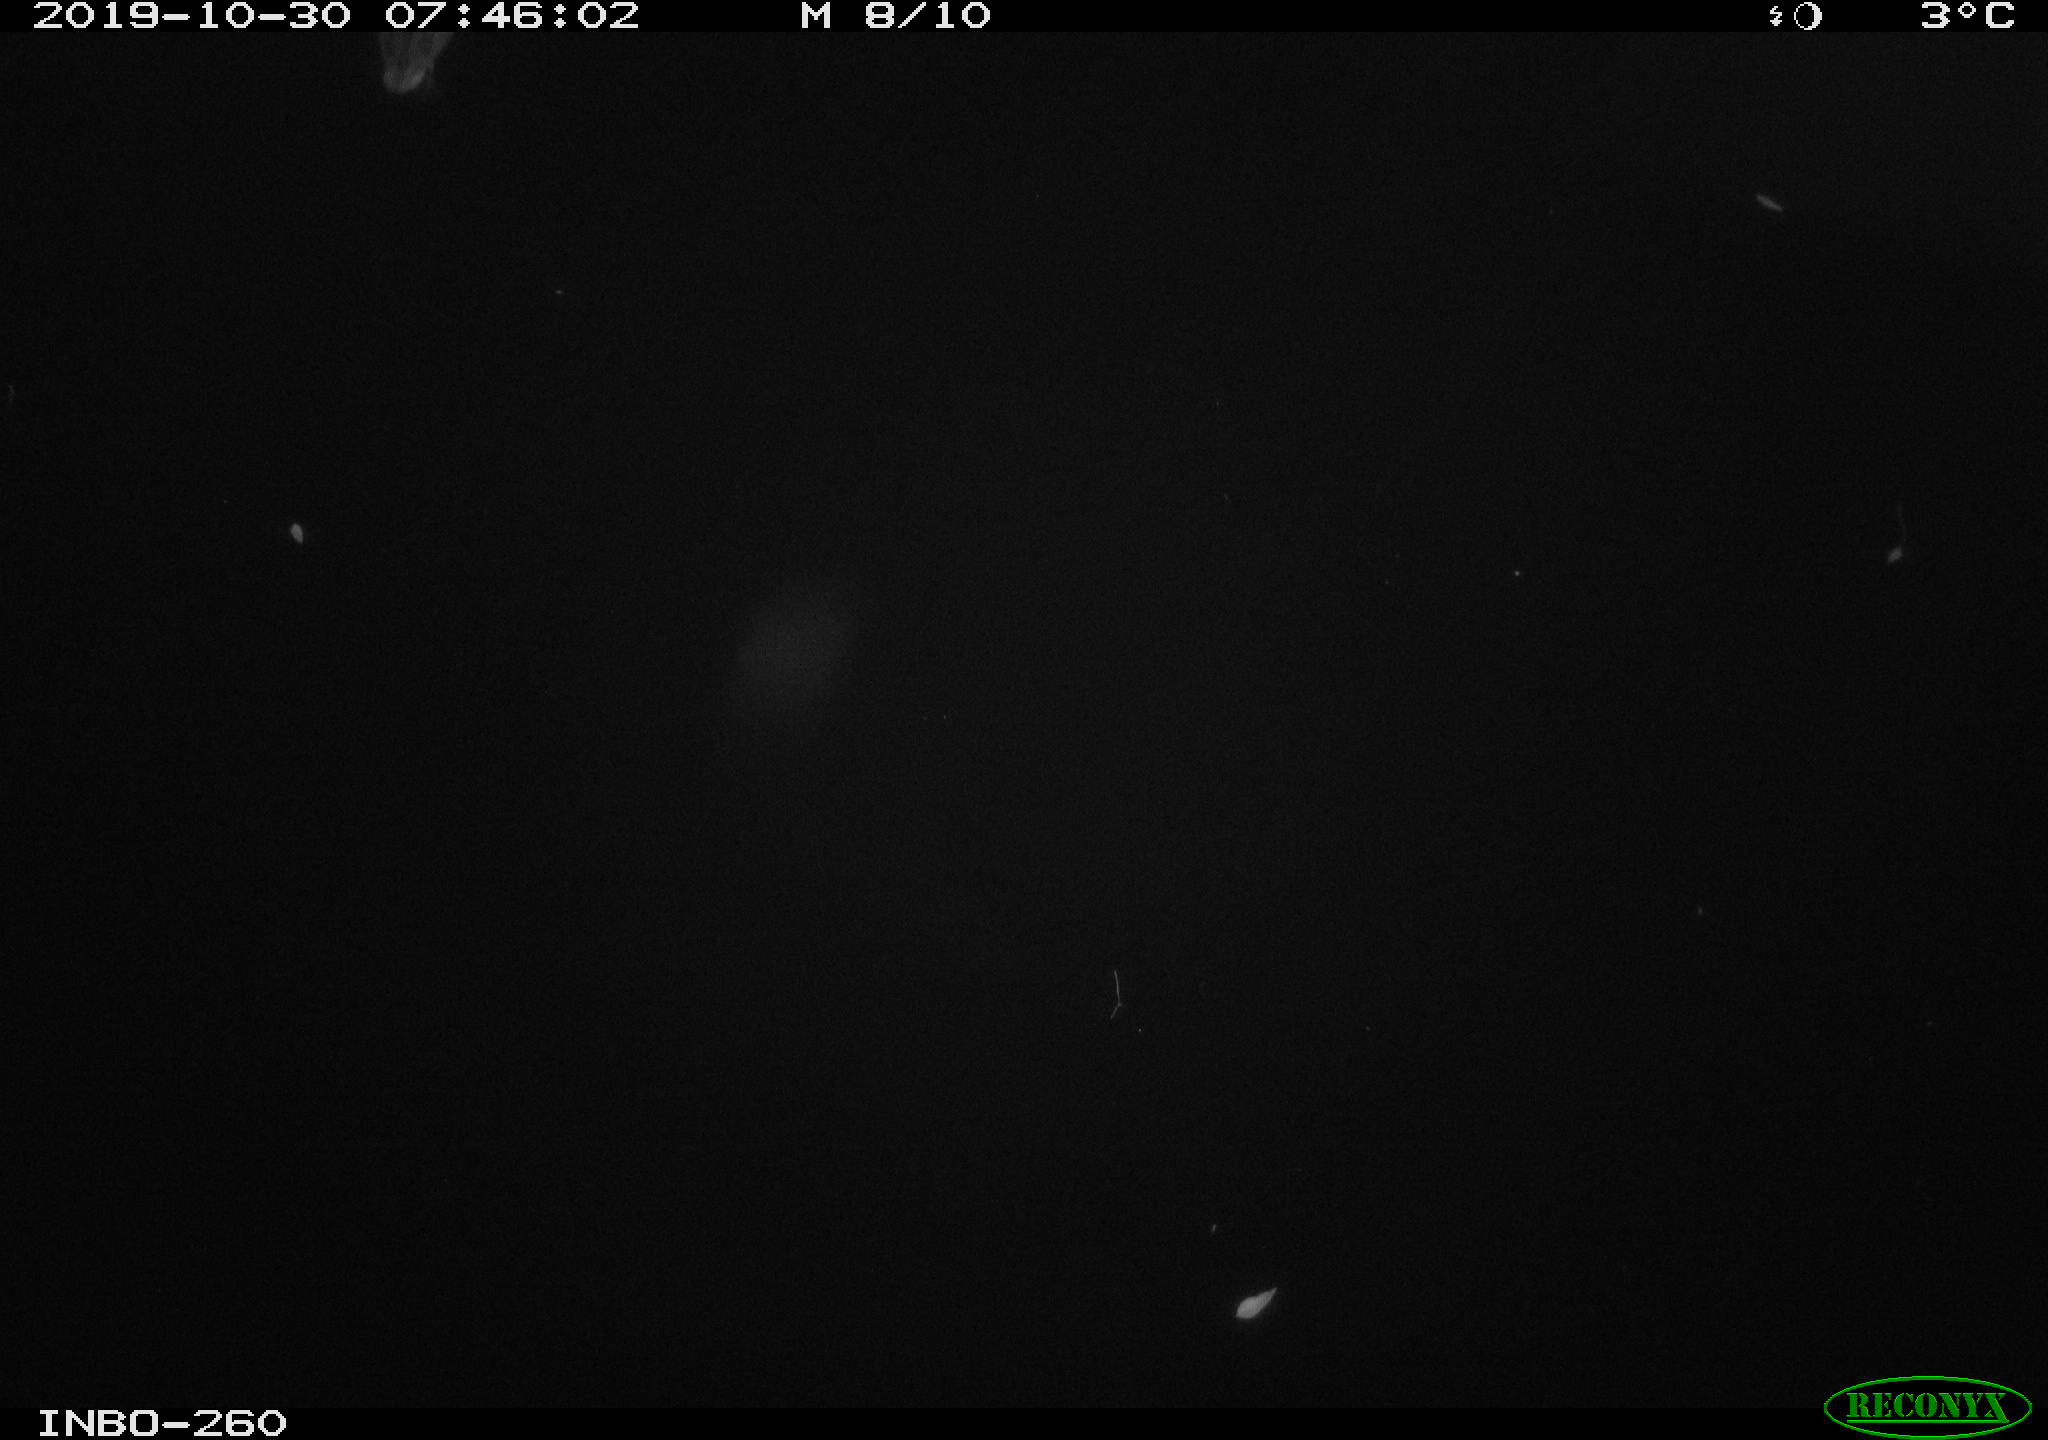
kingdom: Animalia
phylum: Chordata
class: Aves
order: Anseriformes
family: Anatidae
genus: Anas
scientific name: Anas platyrhynchos
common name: Mallard
